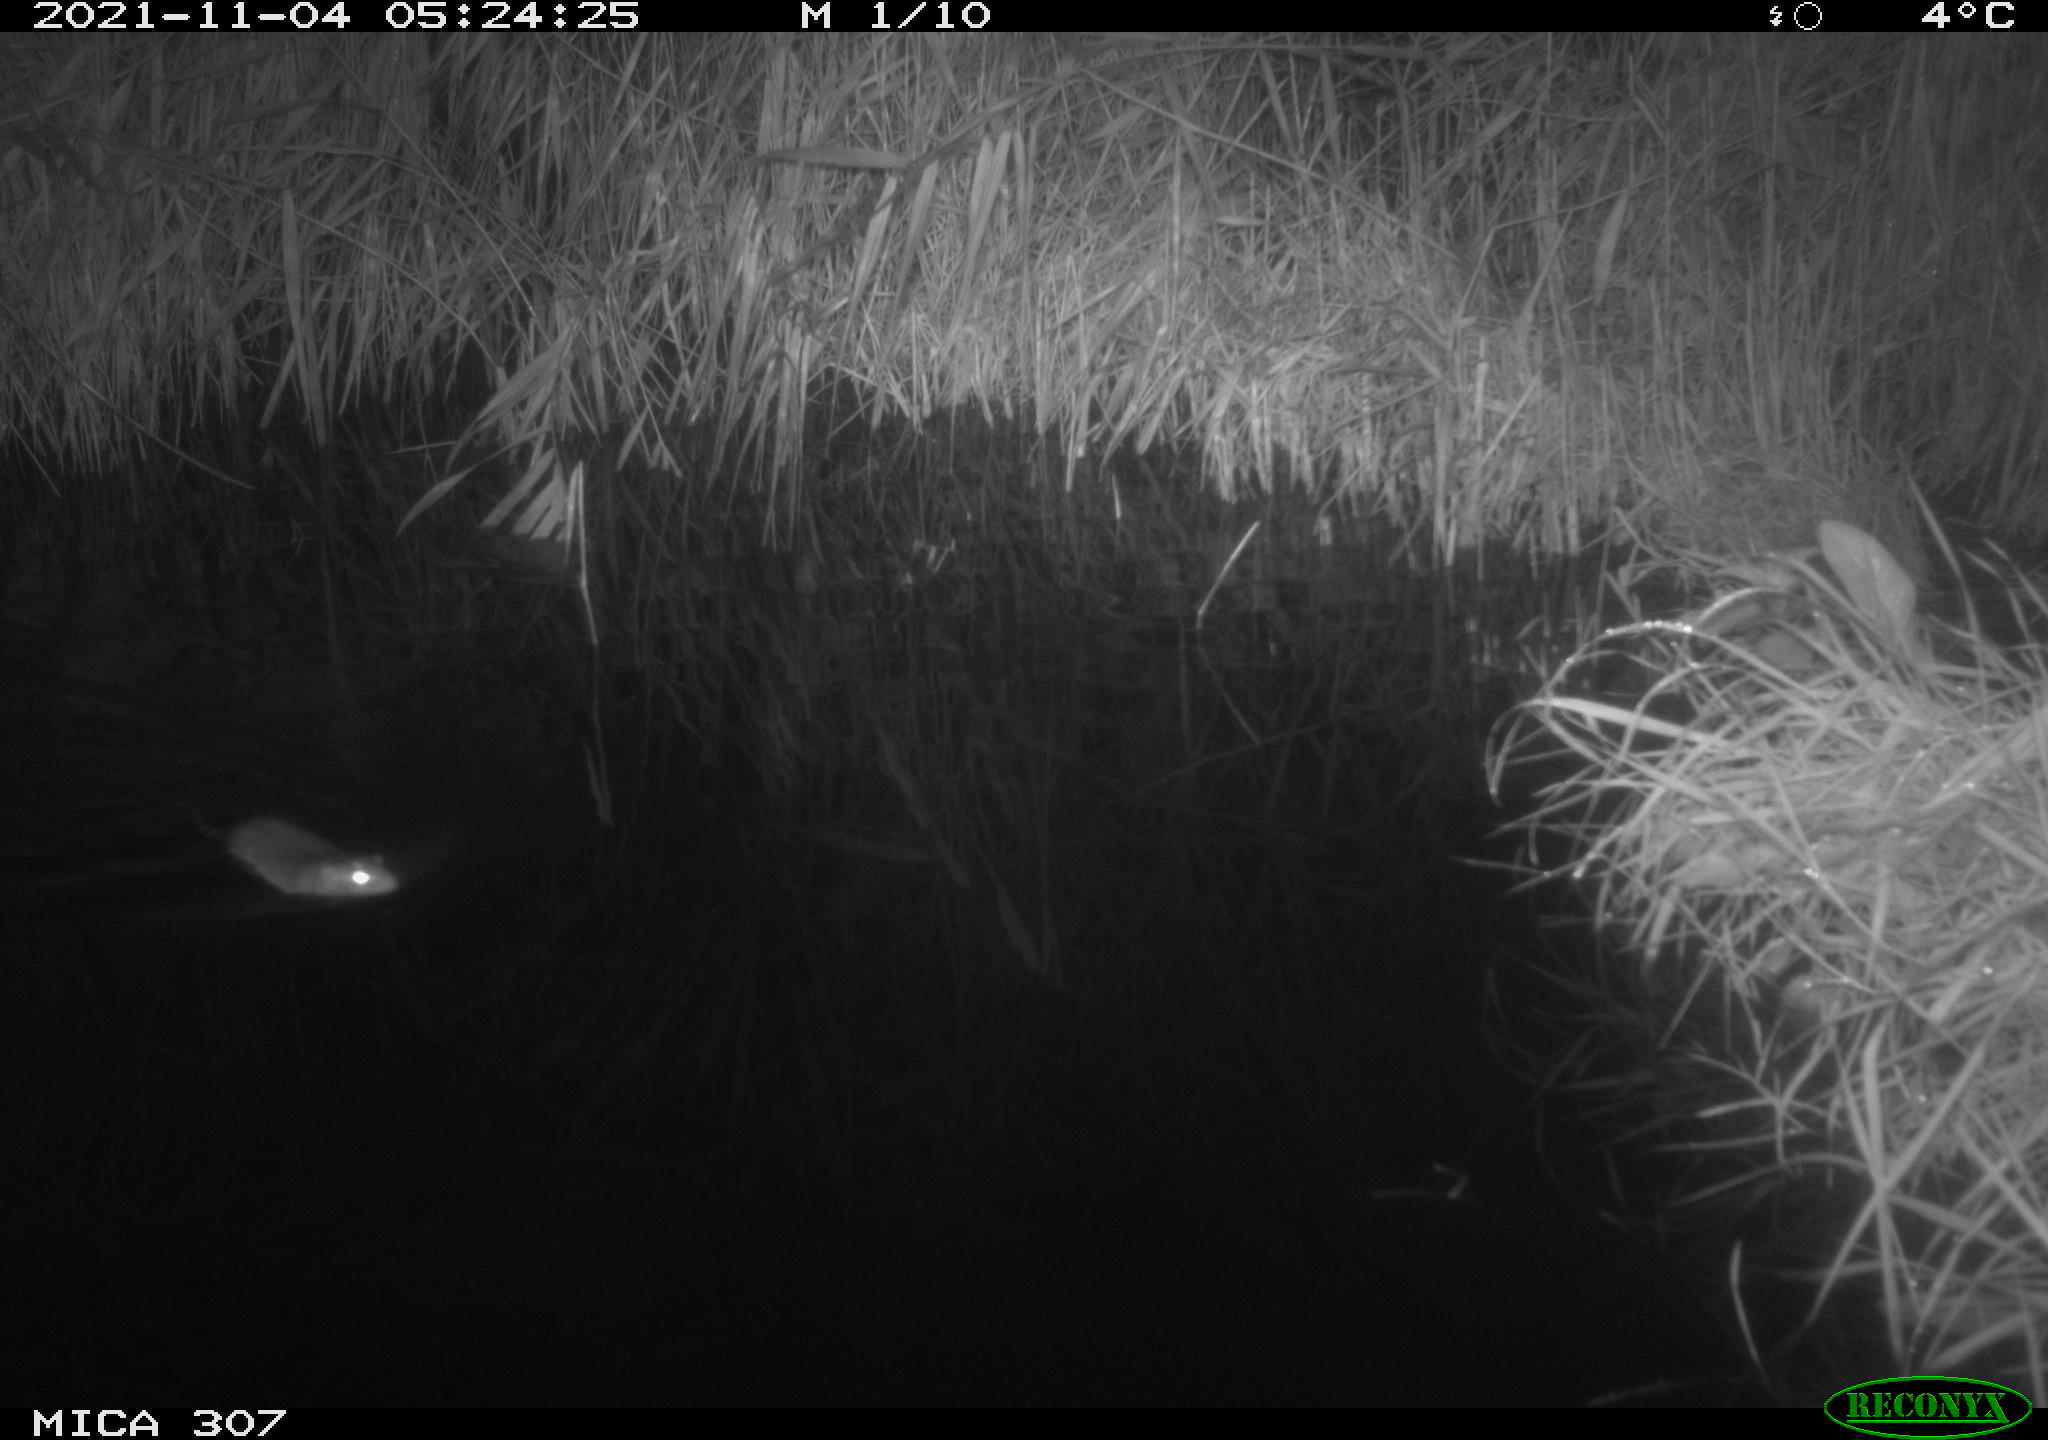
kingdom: Animalia
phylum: Chordata
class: Mammalia
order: Rodentia
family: Muridae
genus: Rattus
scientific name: Rattus norvegicus
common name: Brown rat
